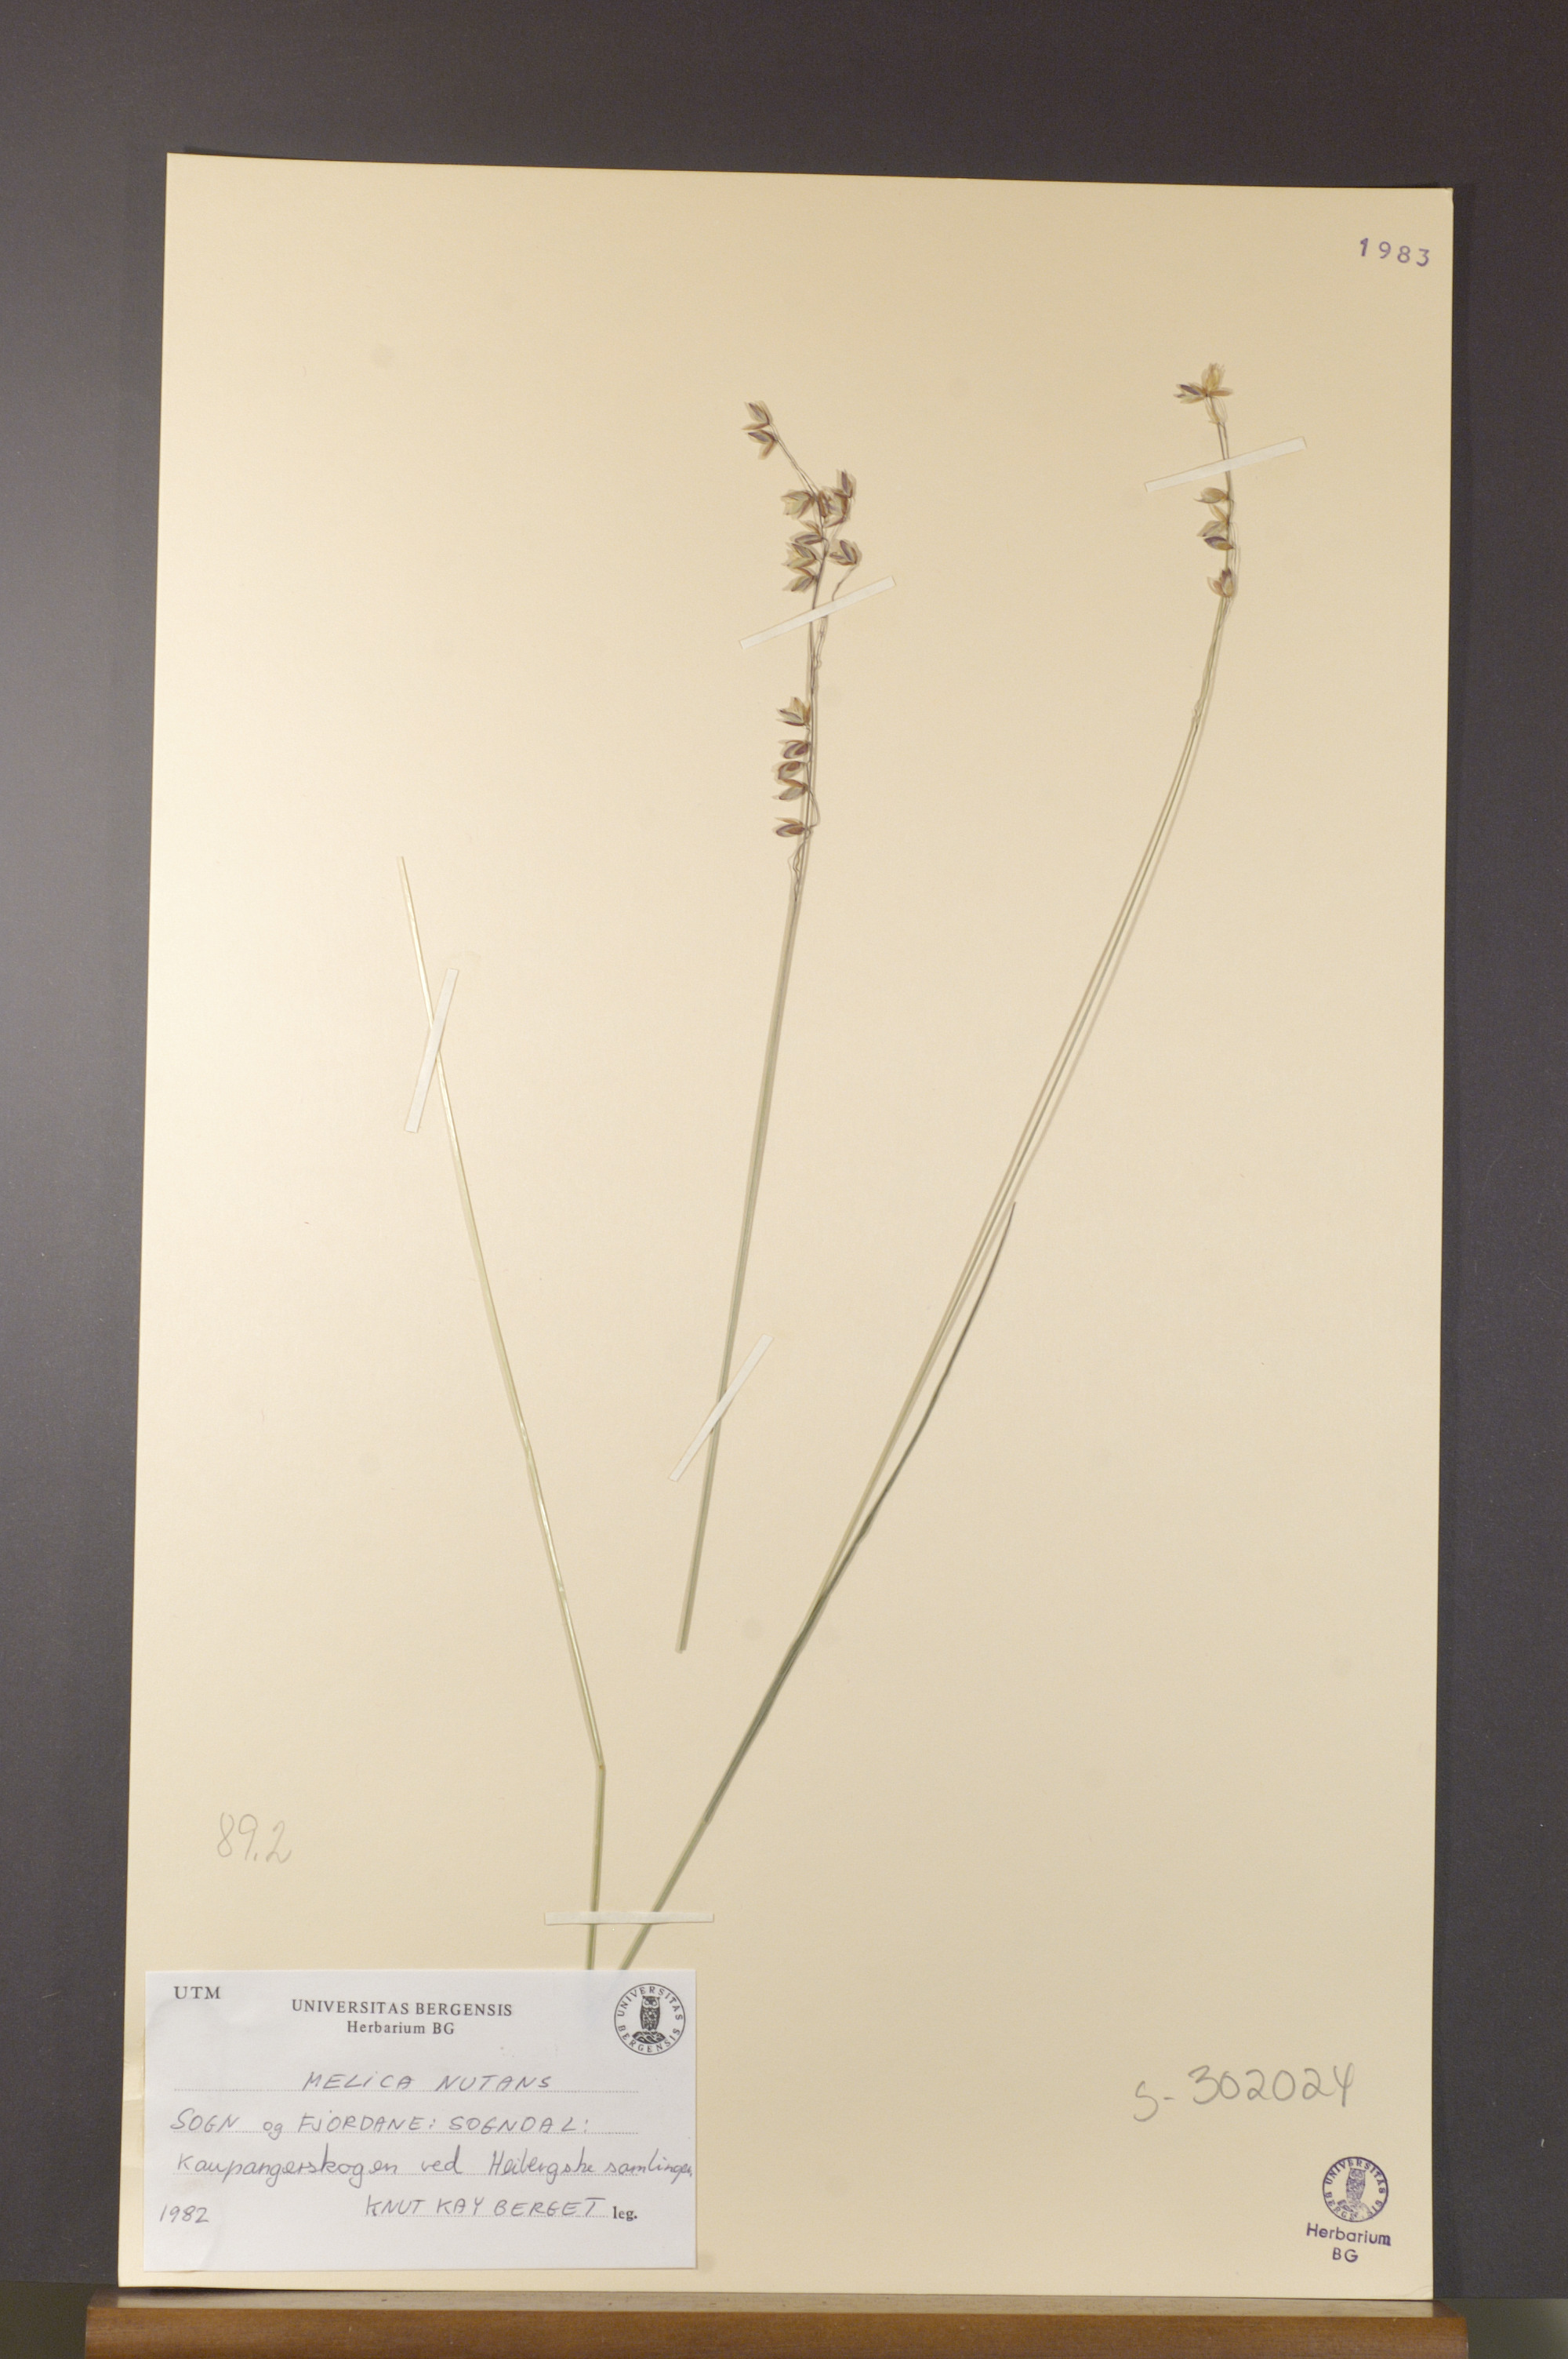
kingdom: Plantae
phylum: Tracheophyta
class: Liliopsida
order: Poales
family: Poaceae
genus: Melica
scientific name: Melica nutans
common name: Mountain melick
